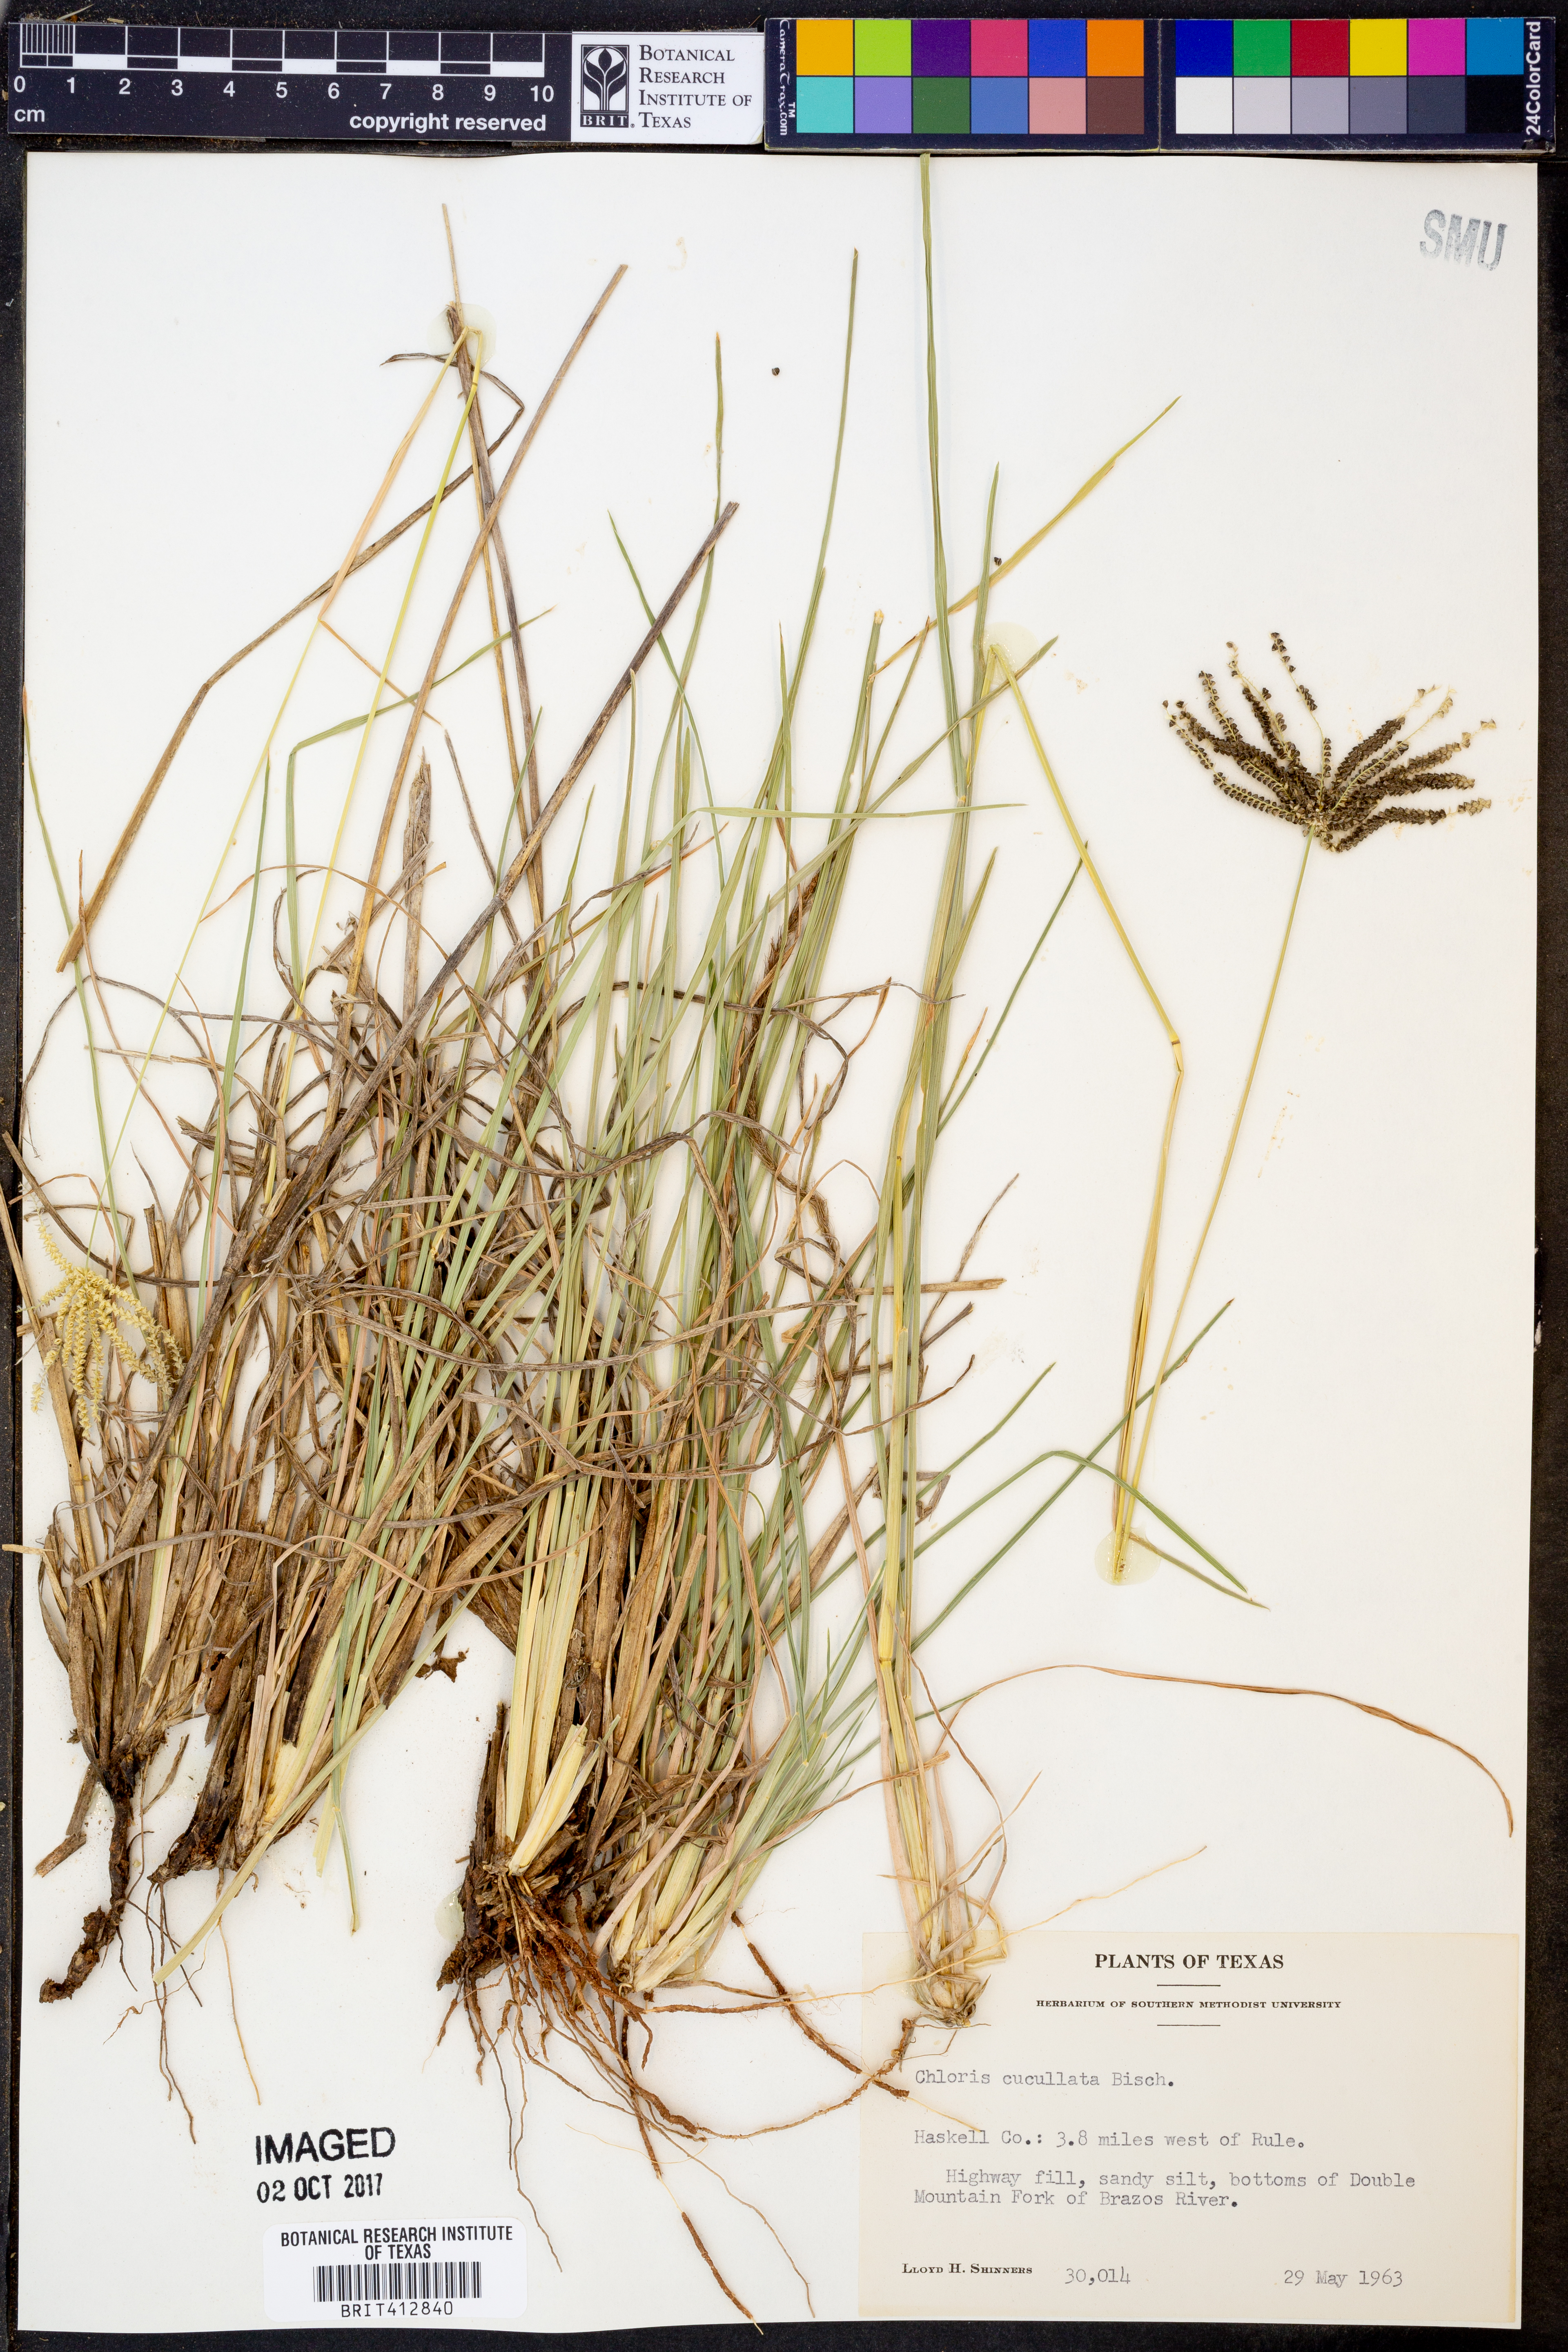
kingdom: Plantae
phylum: Tracheophyta
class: Liliopsida
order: Poales
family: Poaceae
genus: Chloris
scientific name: Chloris cucullata
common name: Hooded windmill grass
